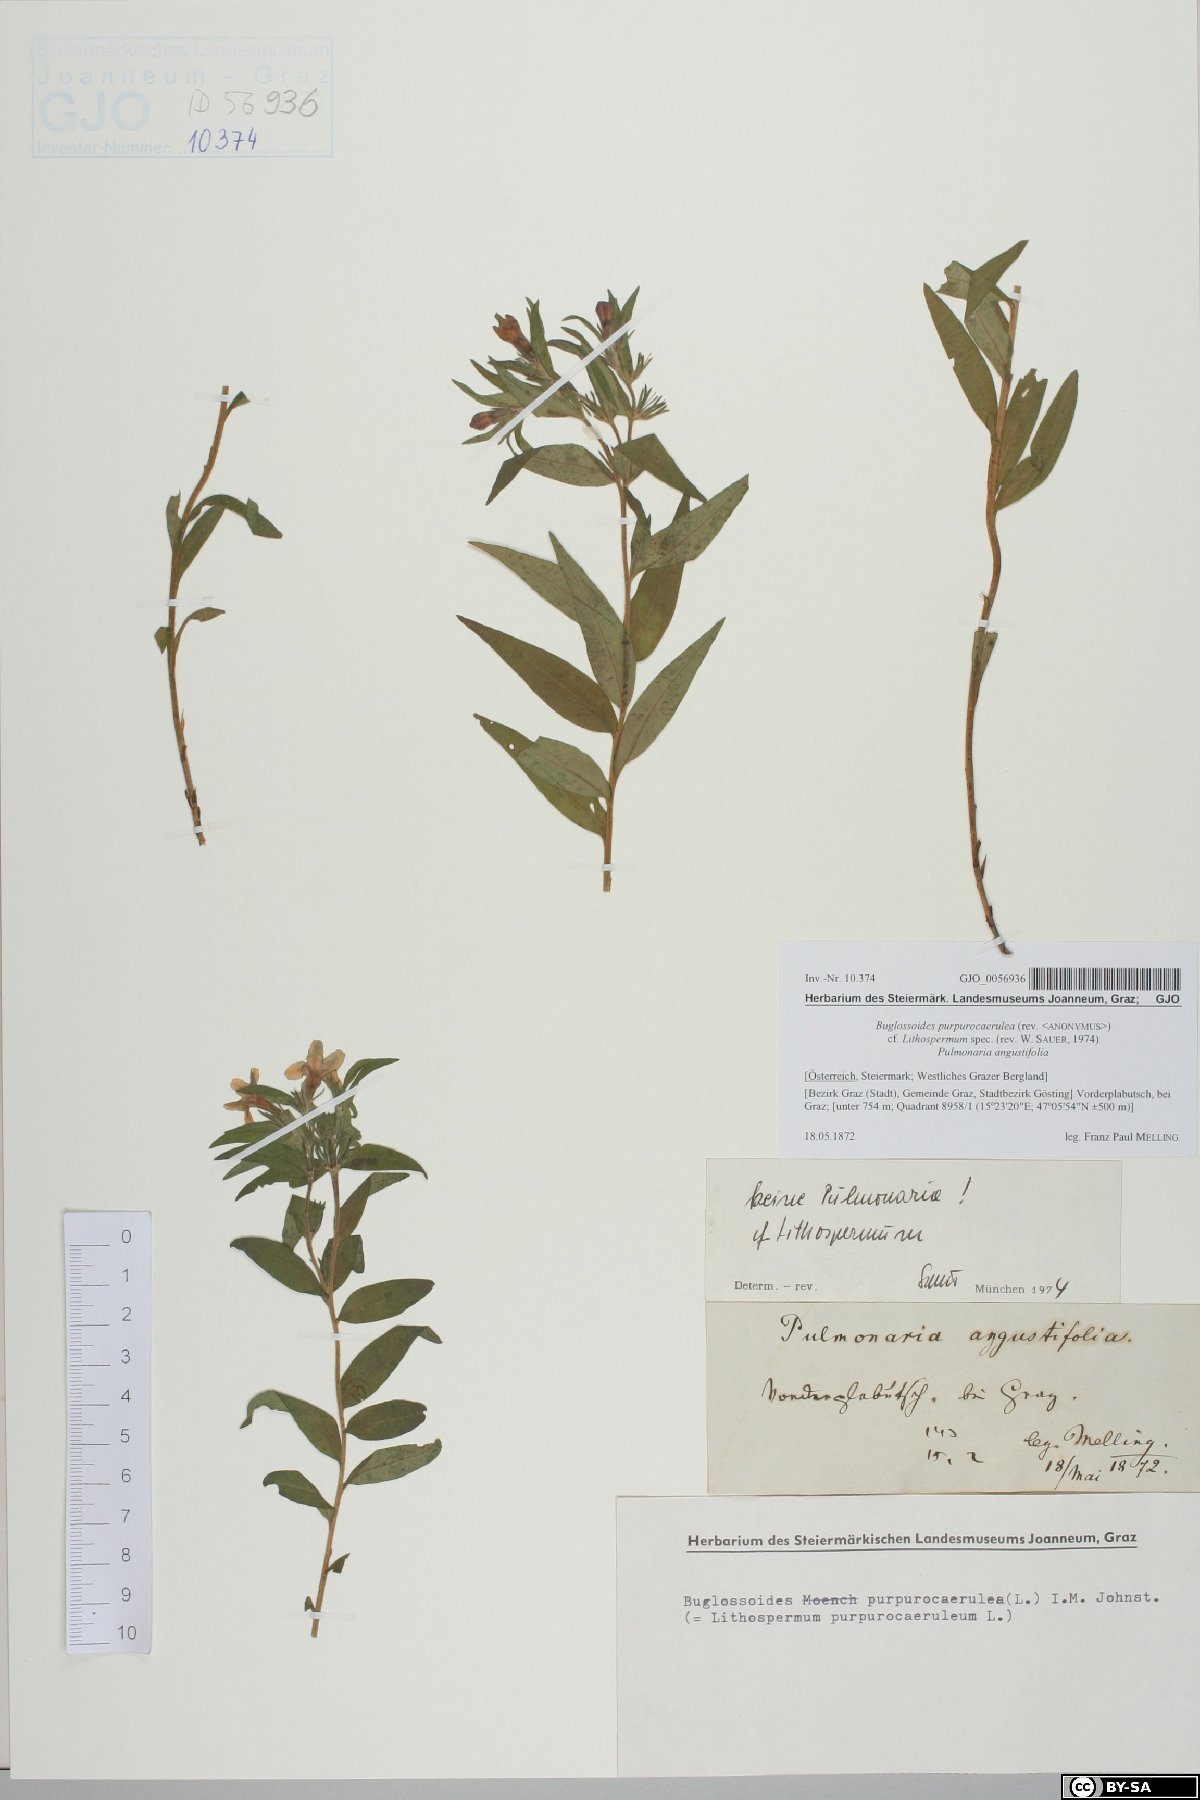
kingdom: Plantae
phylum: Tracheophyta
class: Magnoliopsida
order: Boraginales
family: Boraginaceae
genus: Aegonychon
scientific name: Aegonychon purpurocaeruleum
